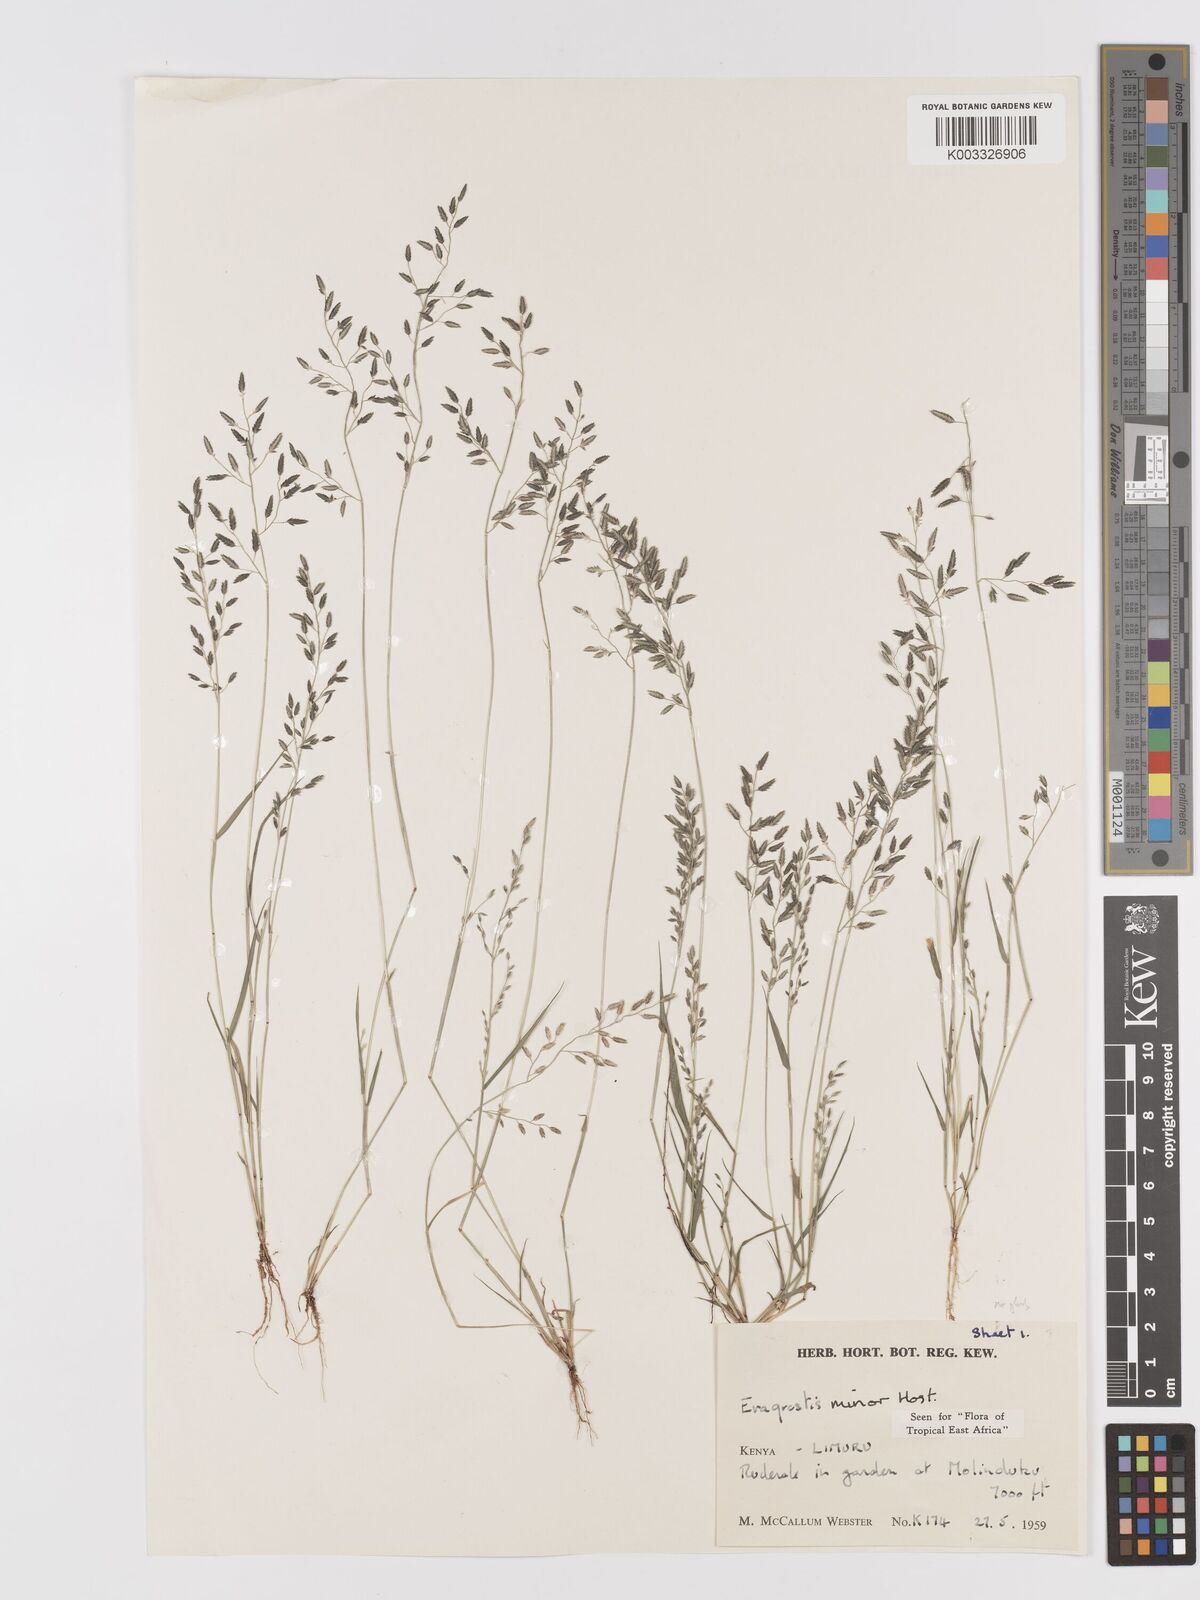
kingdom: Plantae
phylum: Tracheophyta
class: Liliopsida
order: Poales
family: Poaceae
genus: Eragrostis
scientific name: Eragrostis minor
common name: Small love-grass
